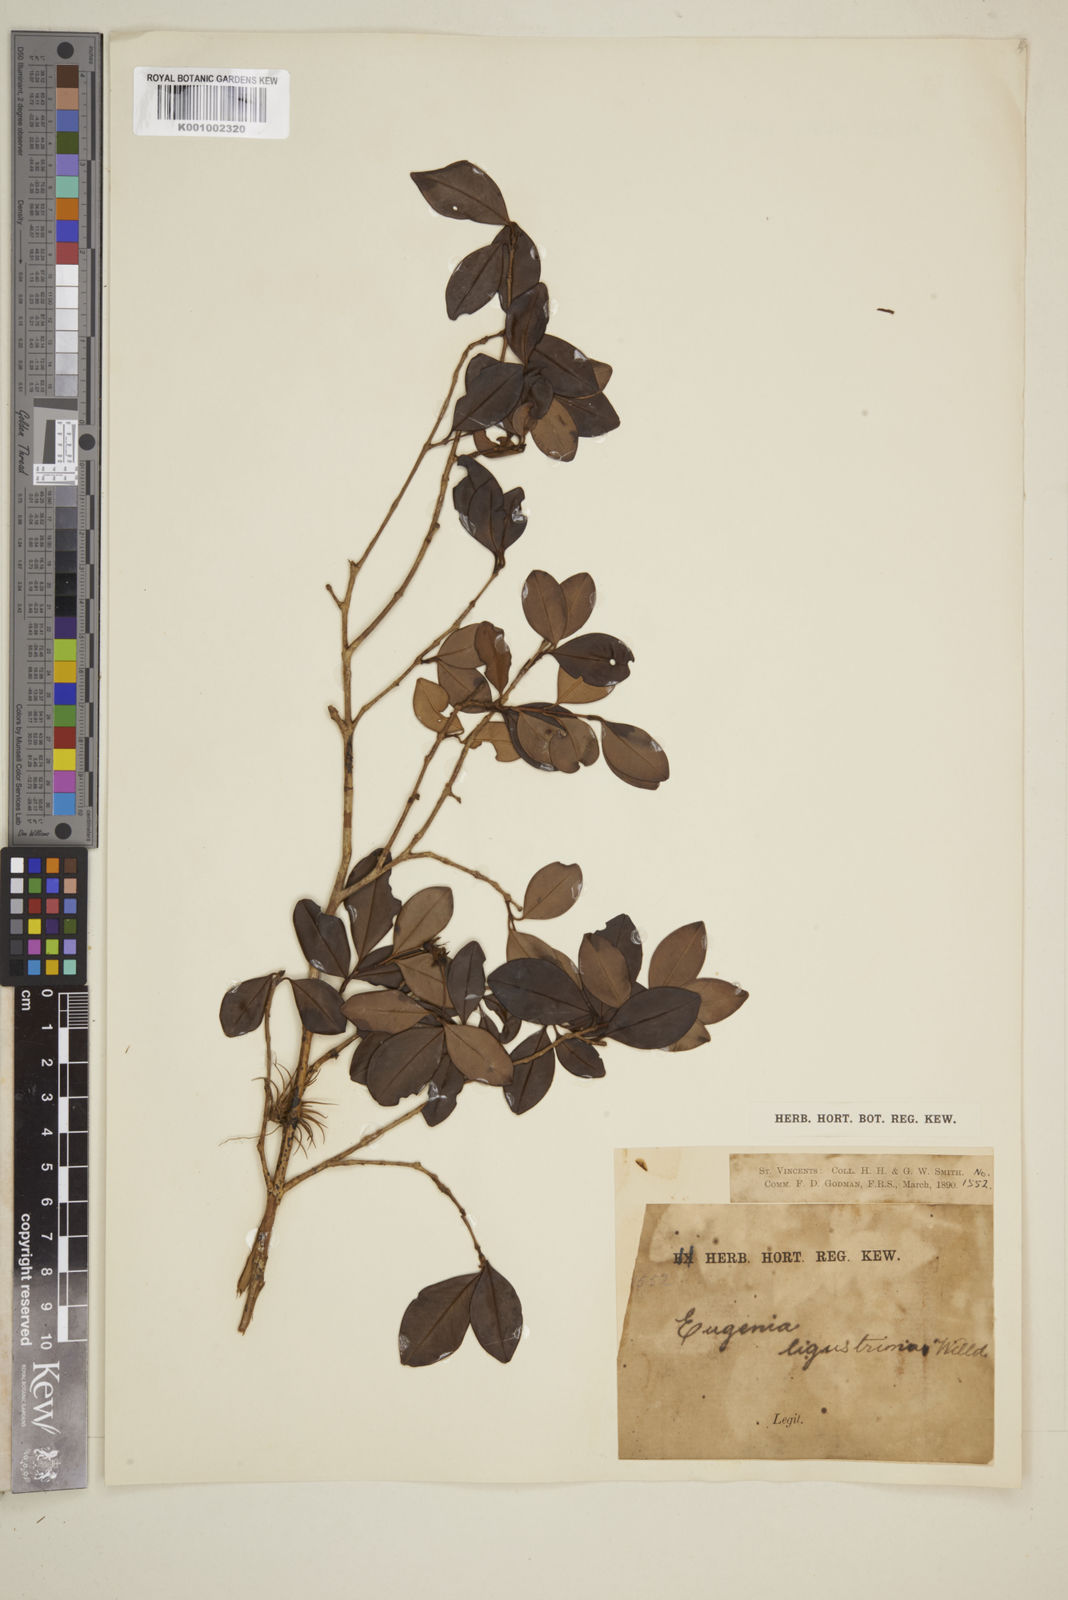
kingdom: Plantae
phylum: Tracheophyta
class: Magnoliopsida
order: Myrtales
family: Myrtaceae
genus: Eugenia
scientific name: Eugenia ligustrina
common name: Privet stopper
